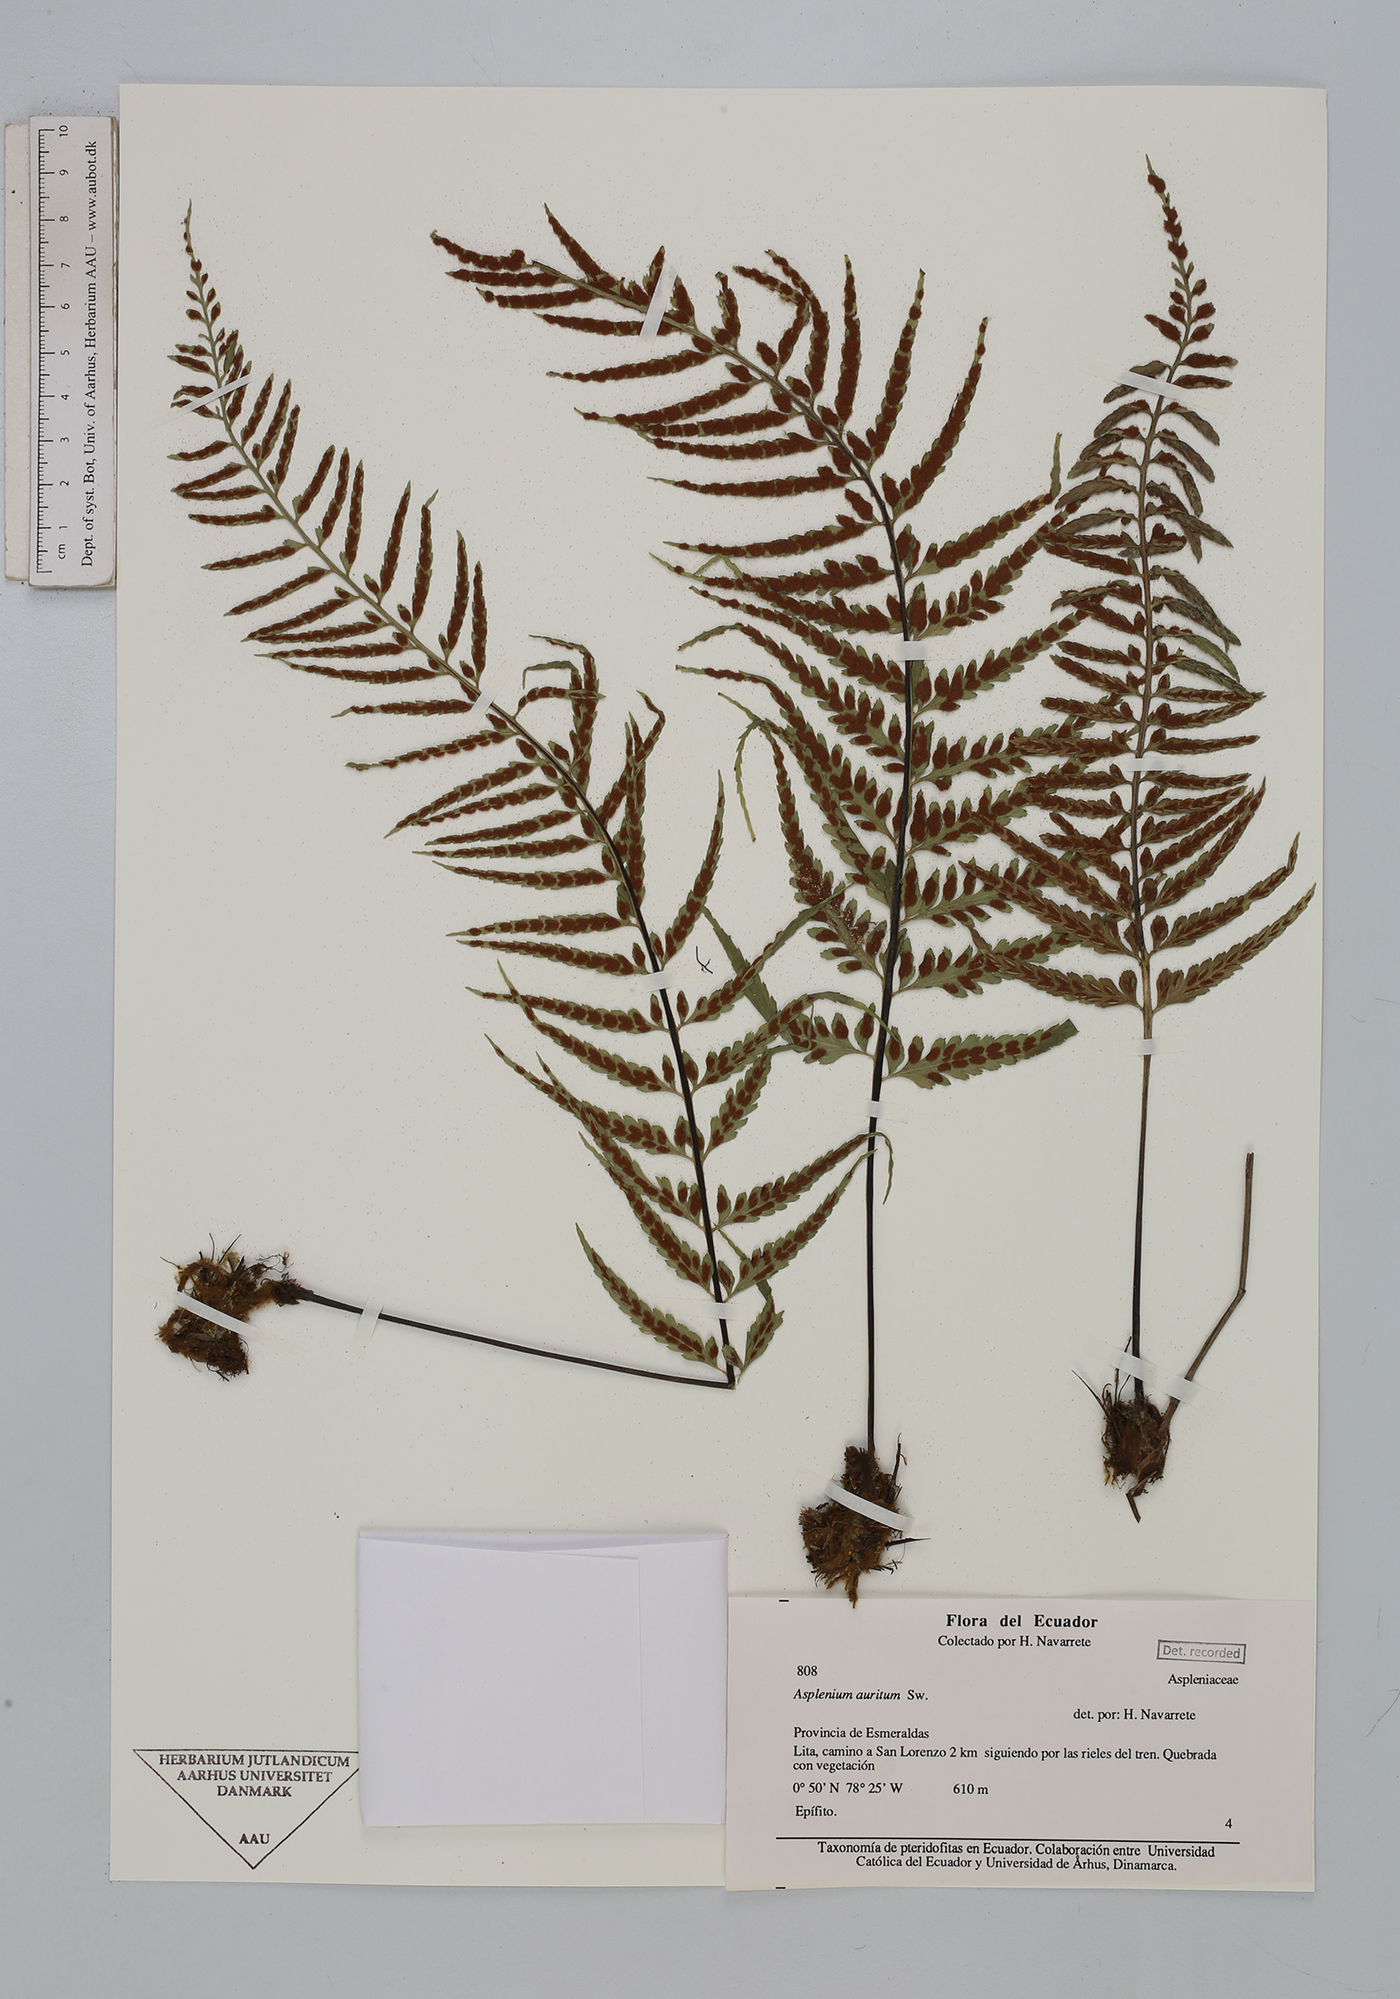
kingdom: Plantae
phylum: Tracheophyta
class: Polypodiopsida
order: Polypodiales
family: Aspleniaceae
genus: Asplenium
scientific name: Asplenium auritum
